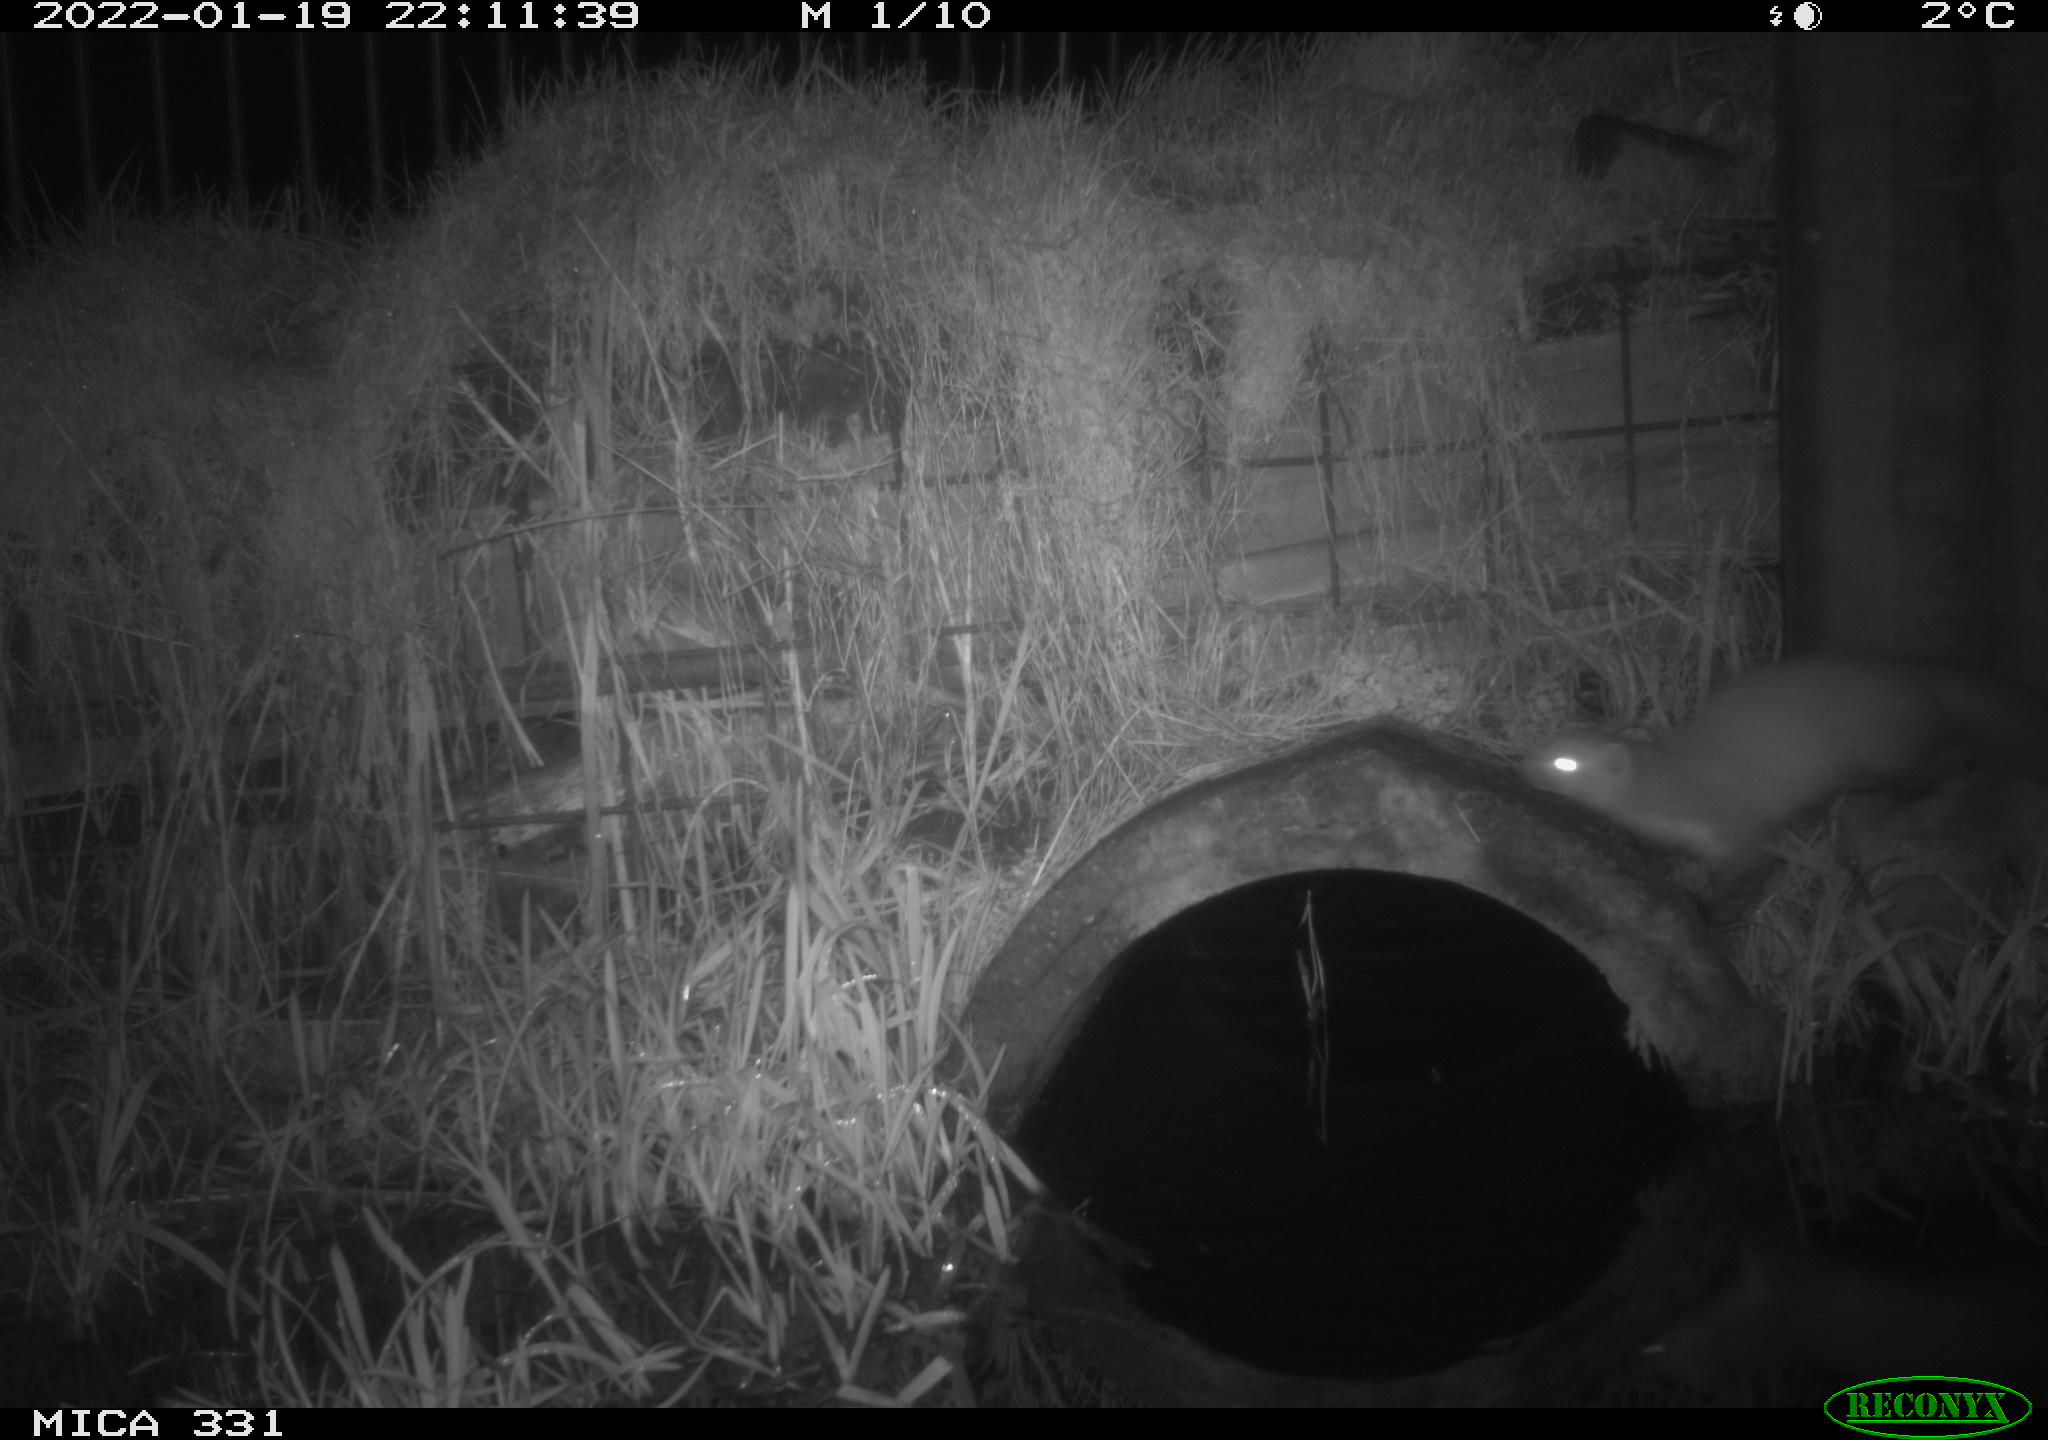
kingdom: Animalia
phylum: Chordata
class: Mammalia
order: Carnivora
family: Mustelidae
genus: Martes
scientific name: Martes foina
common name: Beech marten
